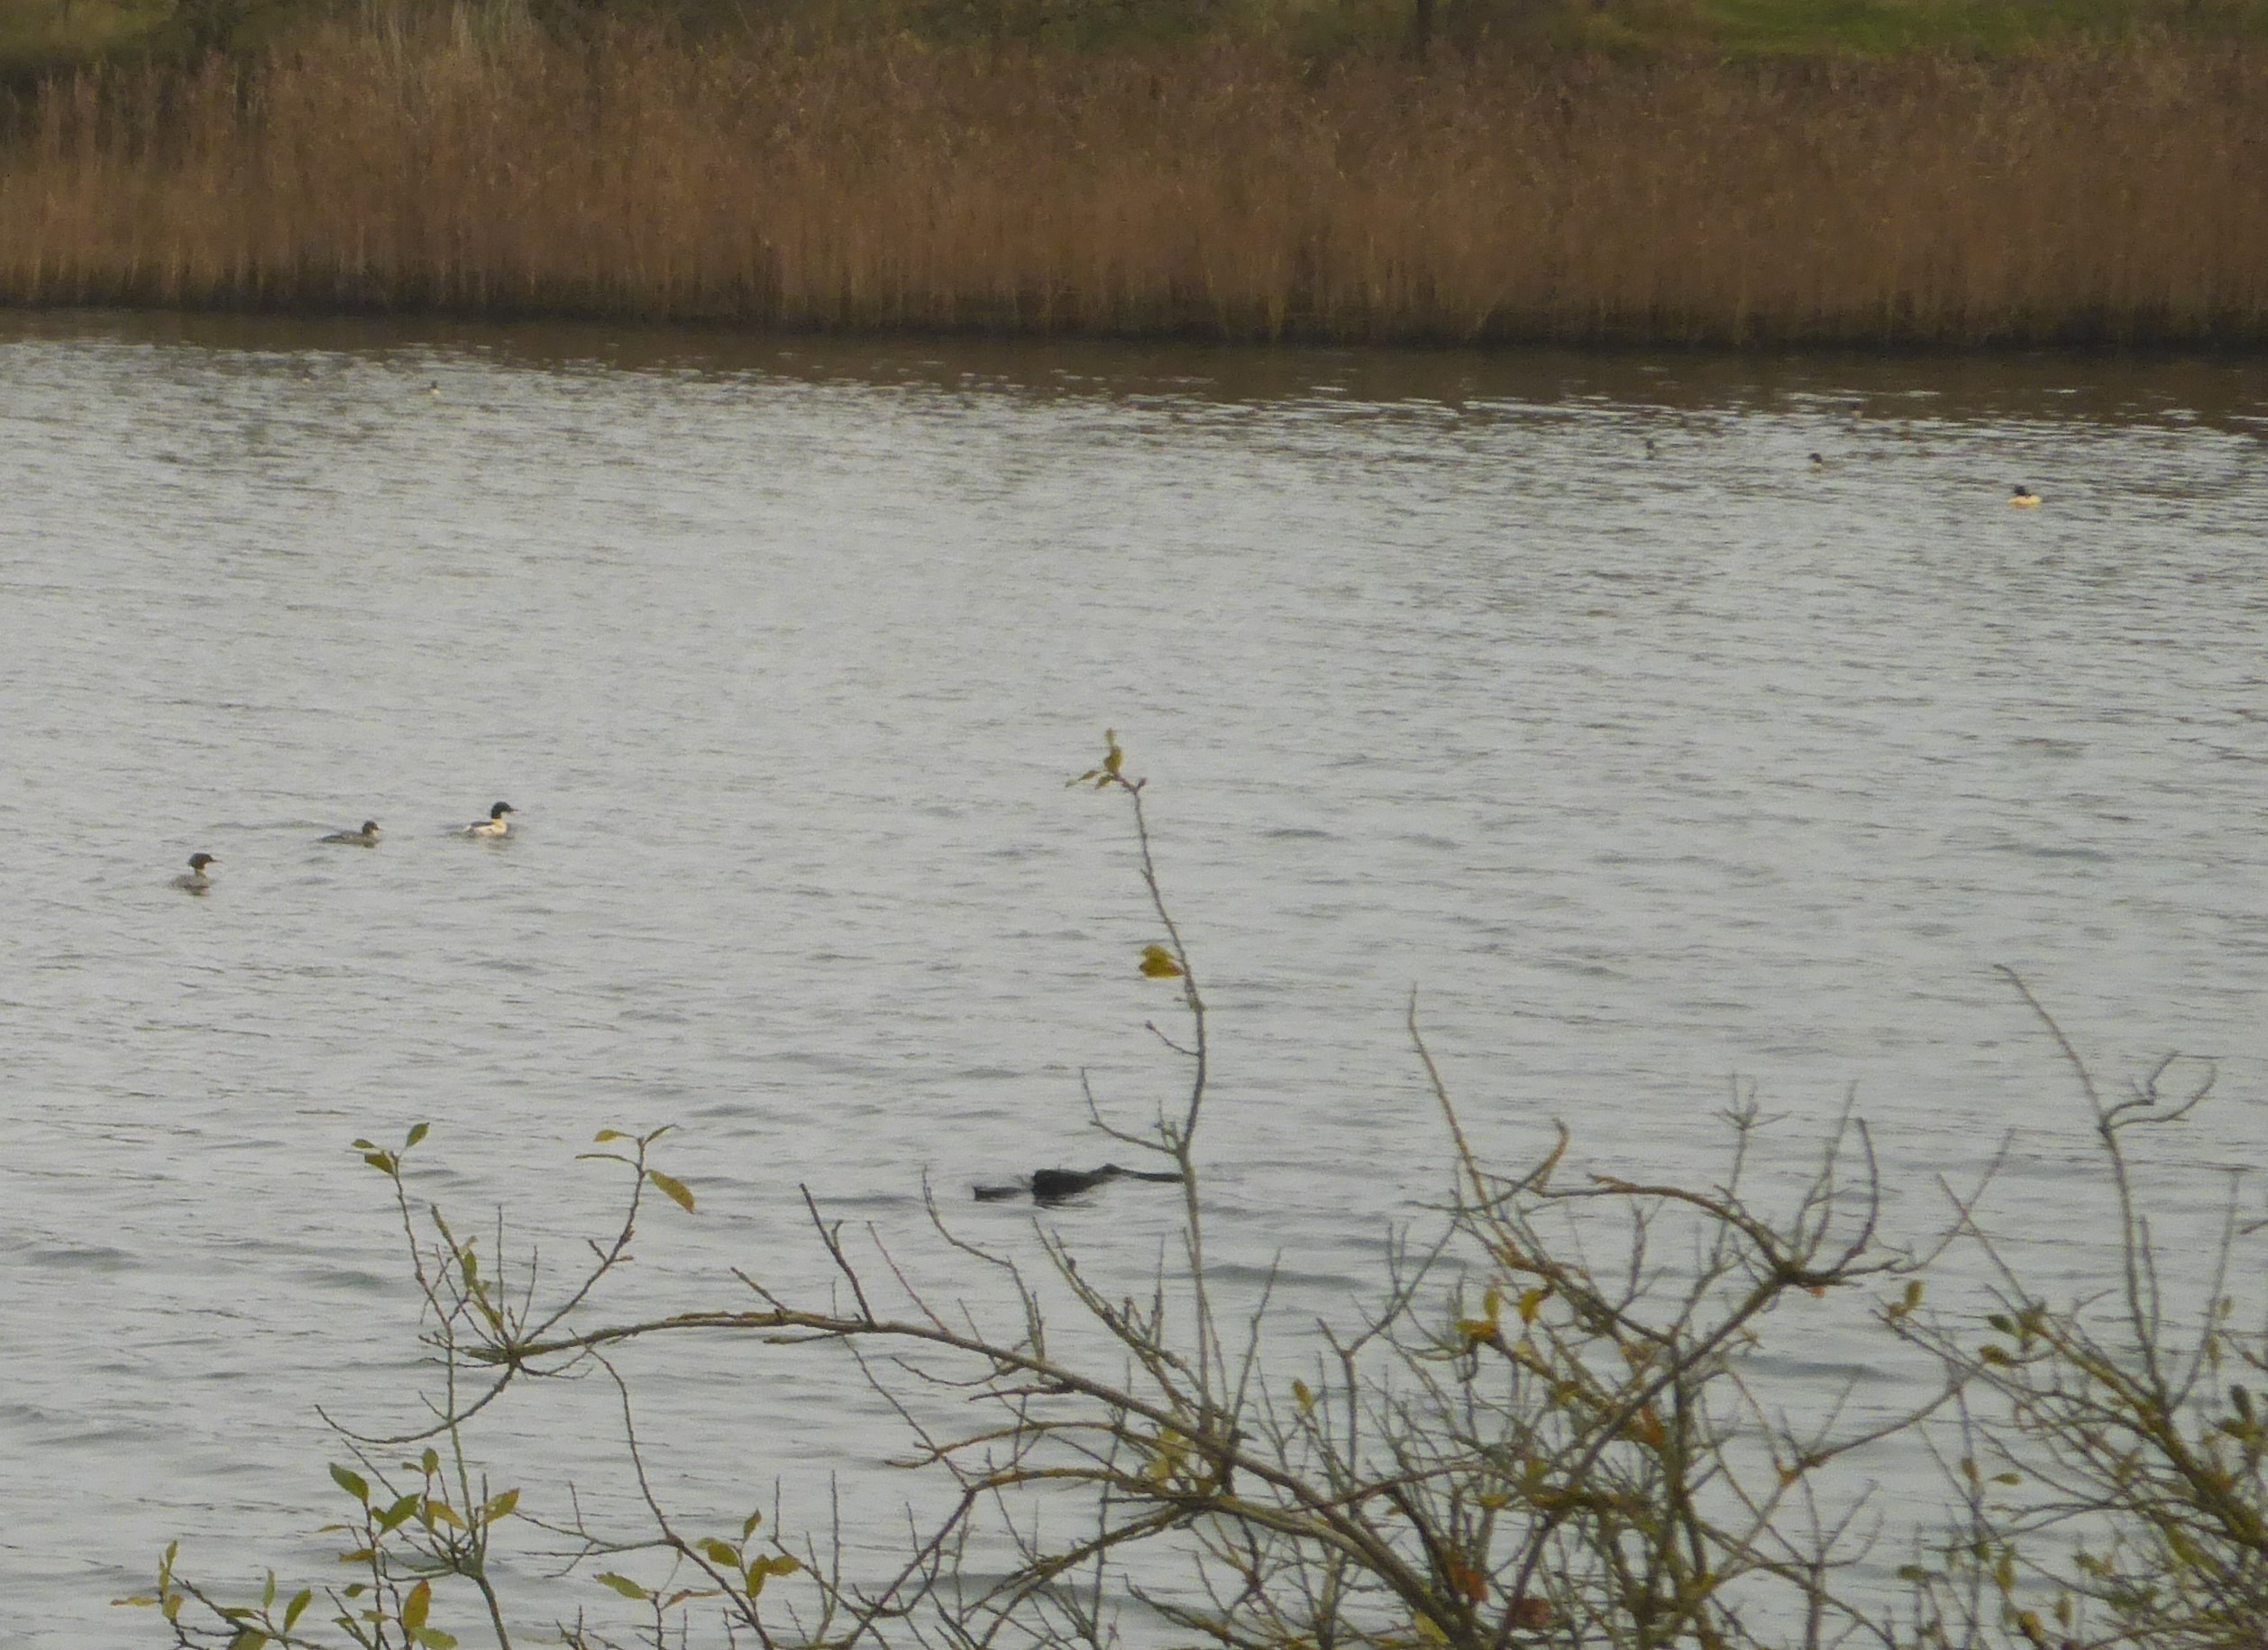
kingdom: Animalia
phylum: Chordata
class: Aves
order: Anseriformes
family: Anatidae
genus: Mergus
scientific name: Mergus merganser
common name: Stor skallesluger
